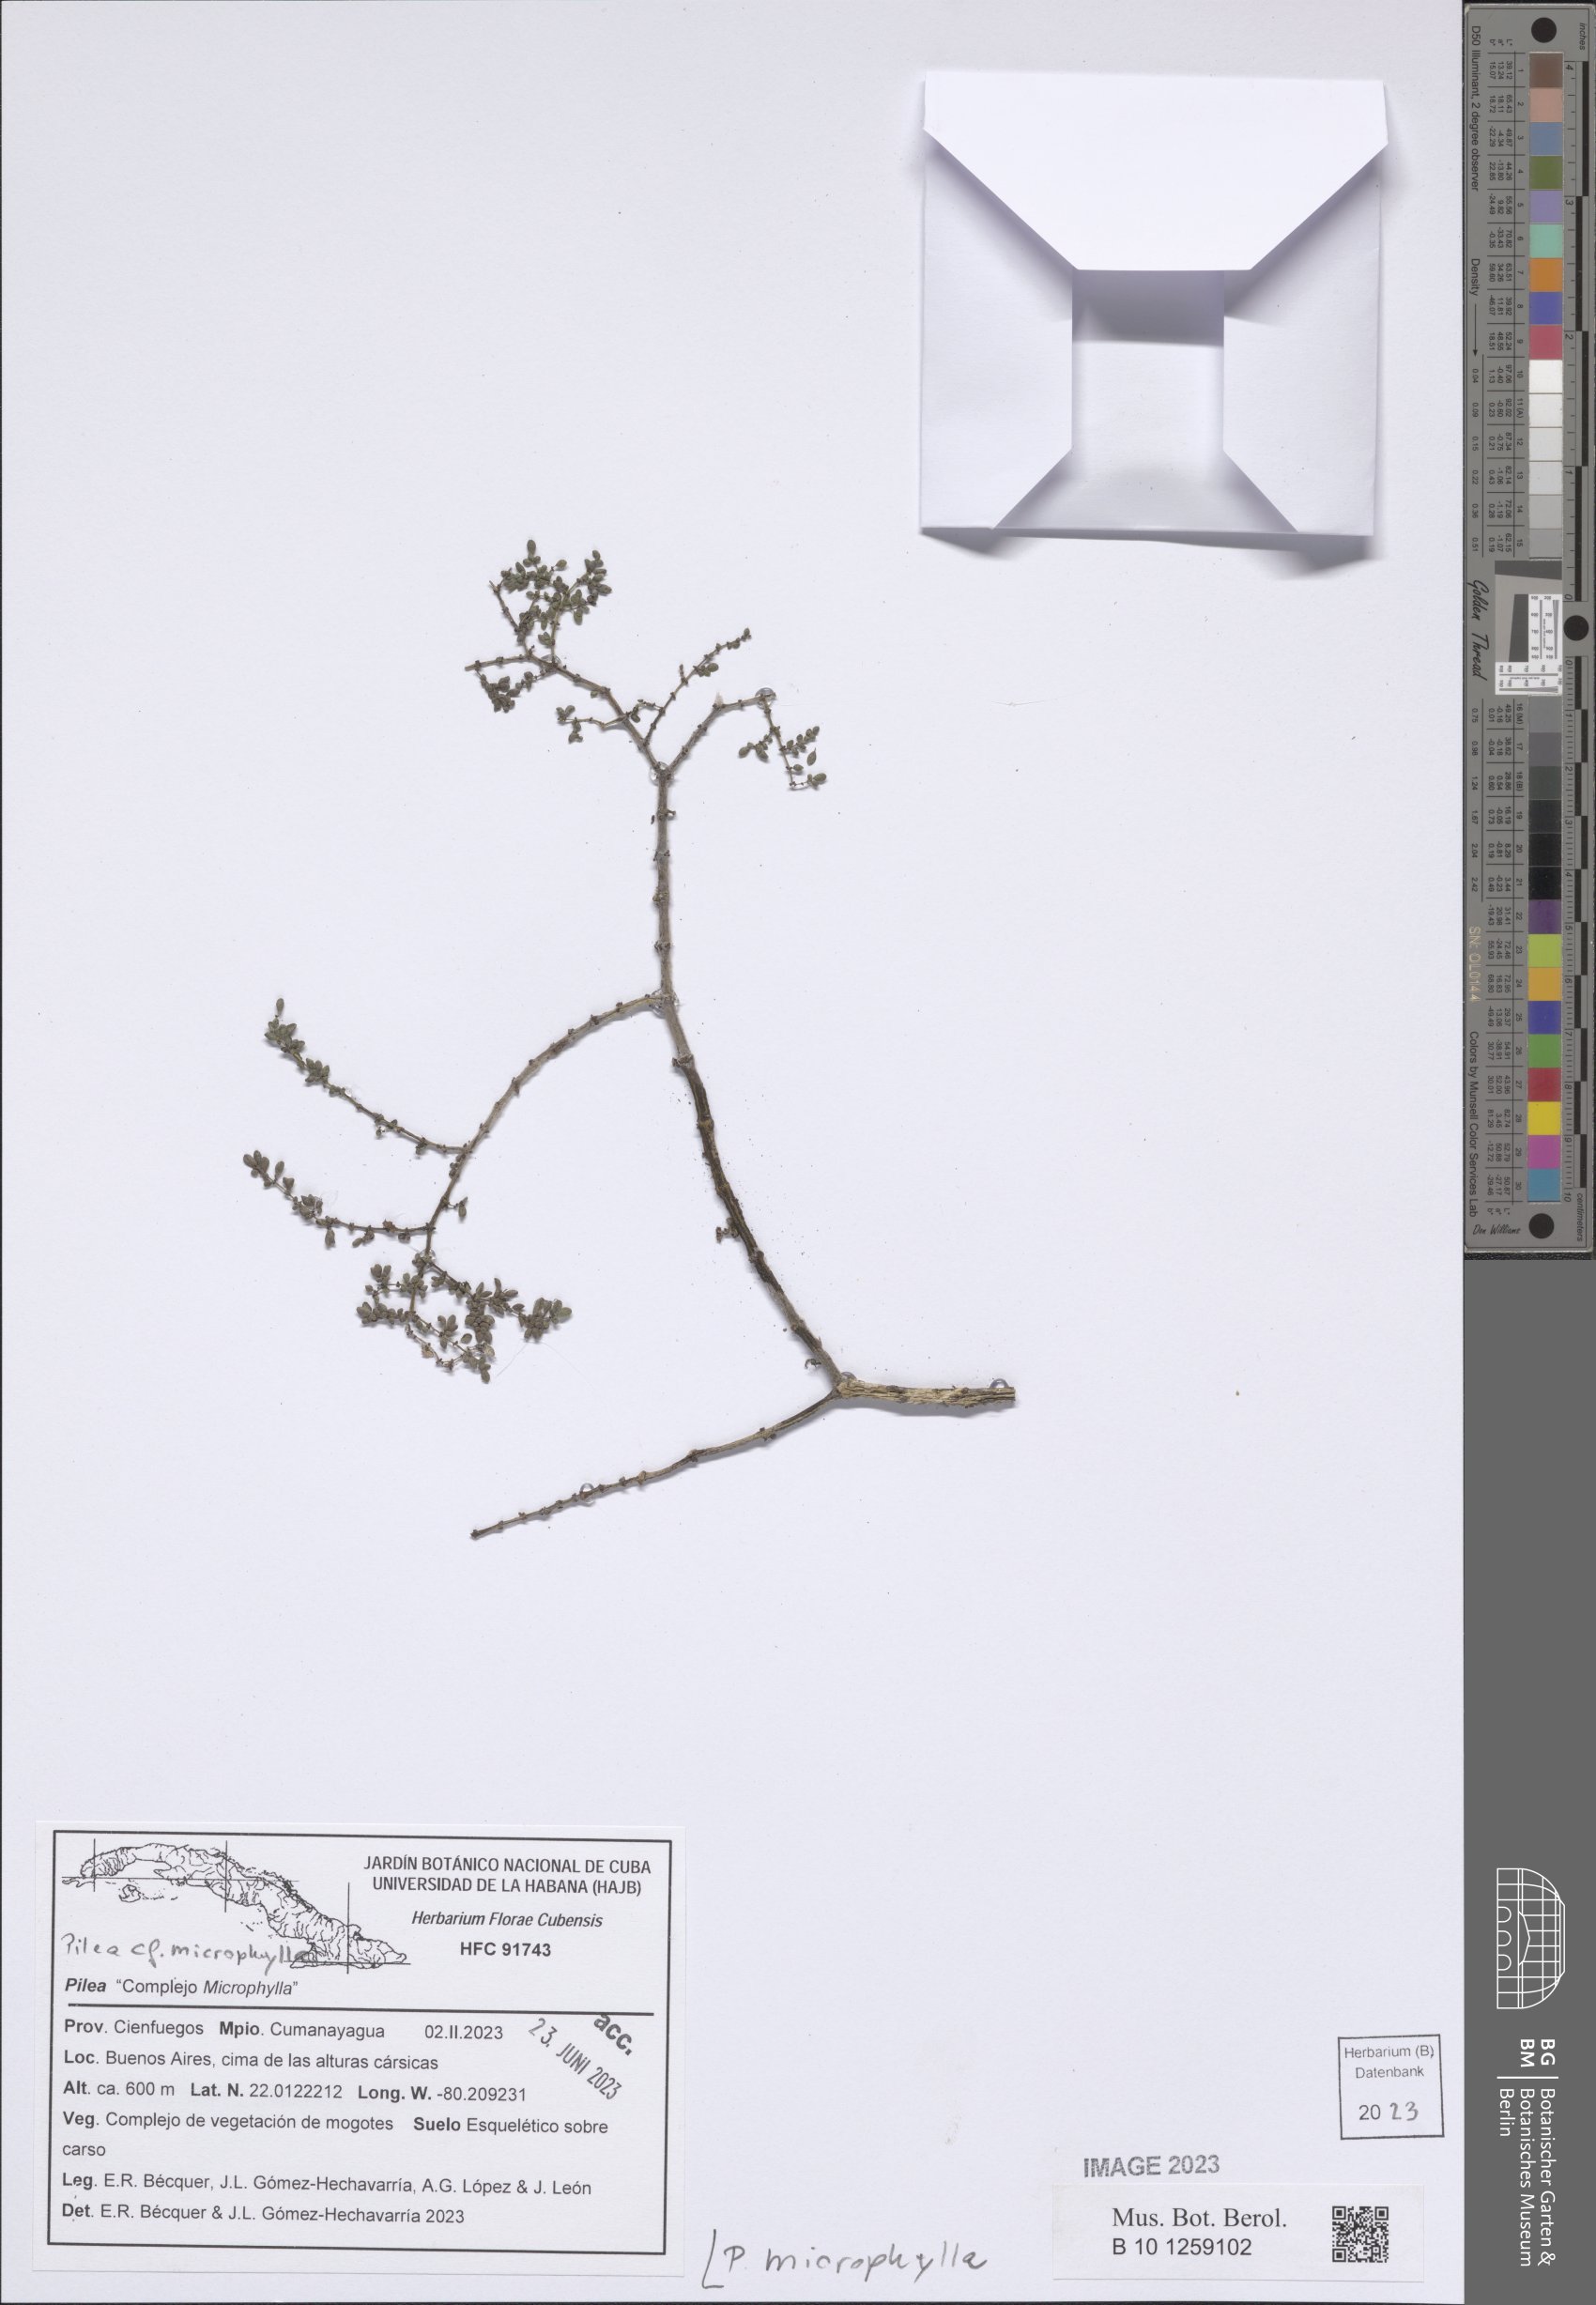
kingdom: Plantae
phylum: Tracheophyta
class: Magnoliopsida
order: Rosales
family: Urticaceae
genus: Pilea
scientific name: Pilea microphylla
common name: Artillery-plant
